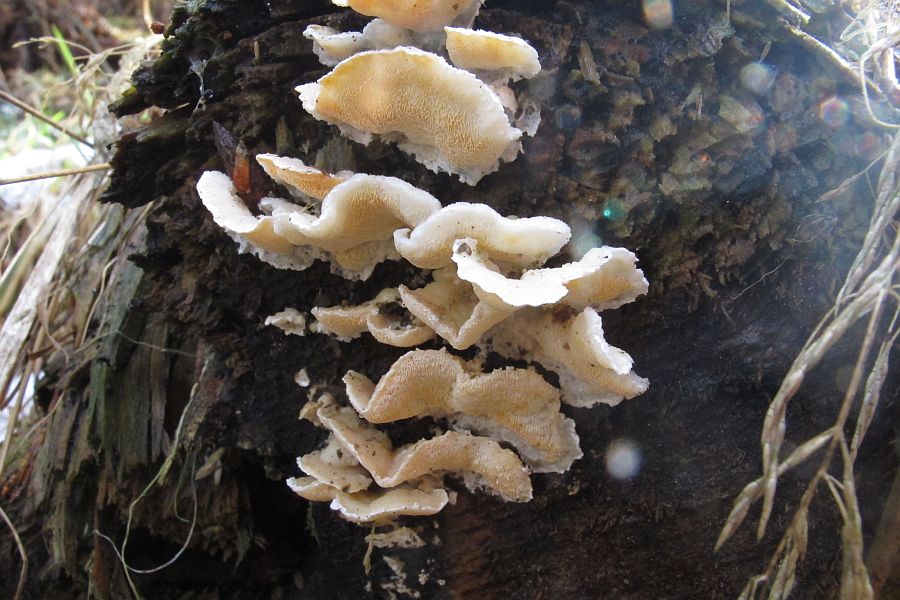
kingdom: Fungi
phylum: Basidiomycota
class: Agaricomycetes
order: Polyporales
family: Incrustoporiaceae
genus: Skeletocutis
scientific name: Skeletocutis amorpha
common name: orange krystalporesvamp
